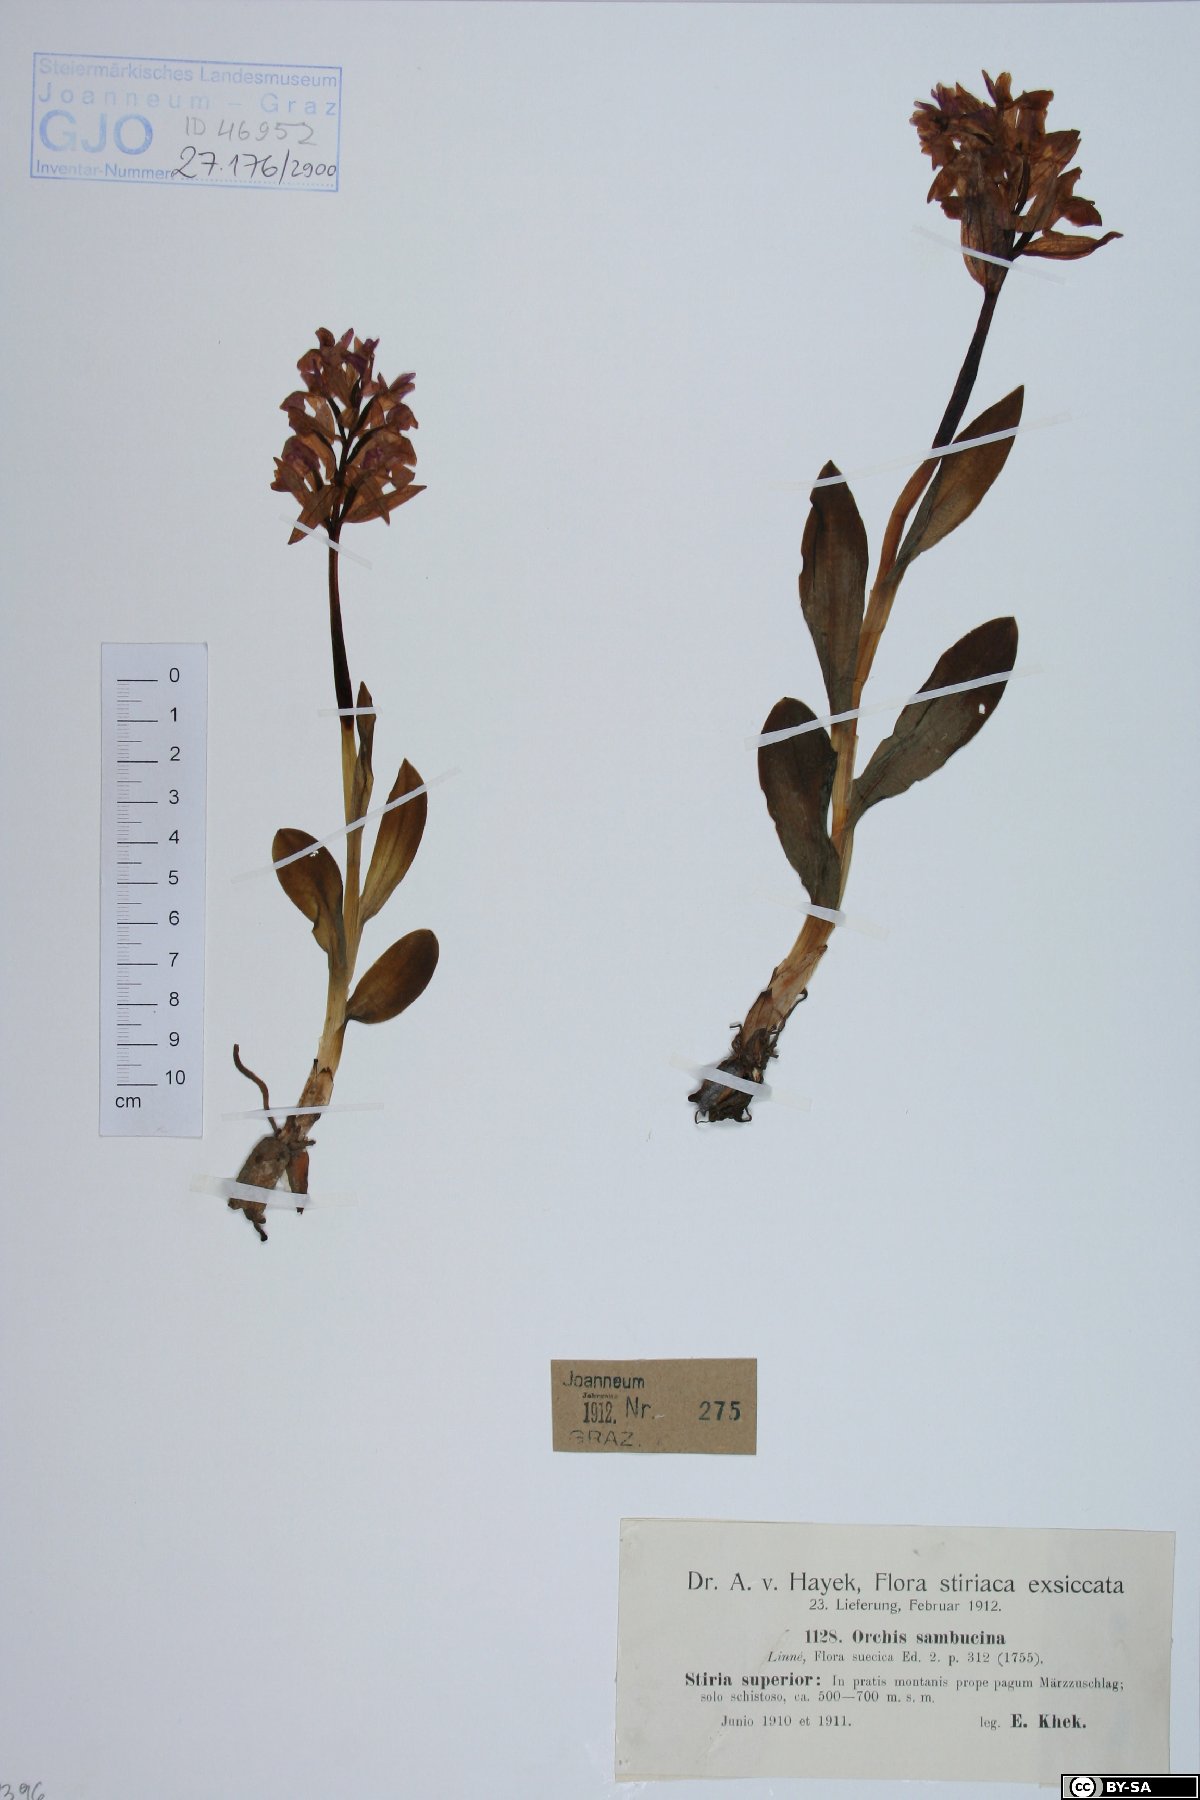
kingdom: Plantae
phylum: Tracheophyta
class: Liliopsida
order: Asparagales
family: Orchidaceae
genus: Dactylorhiza
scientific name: Dactylorhiza sambucina
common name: Elder-flowered orchid
